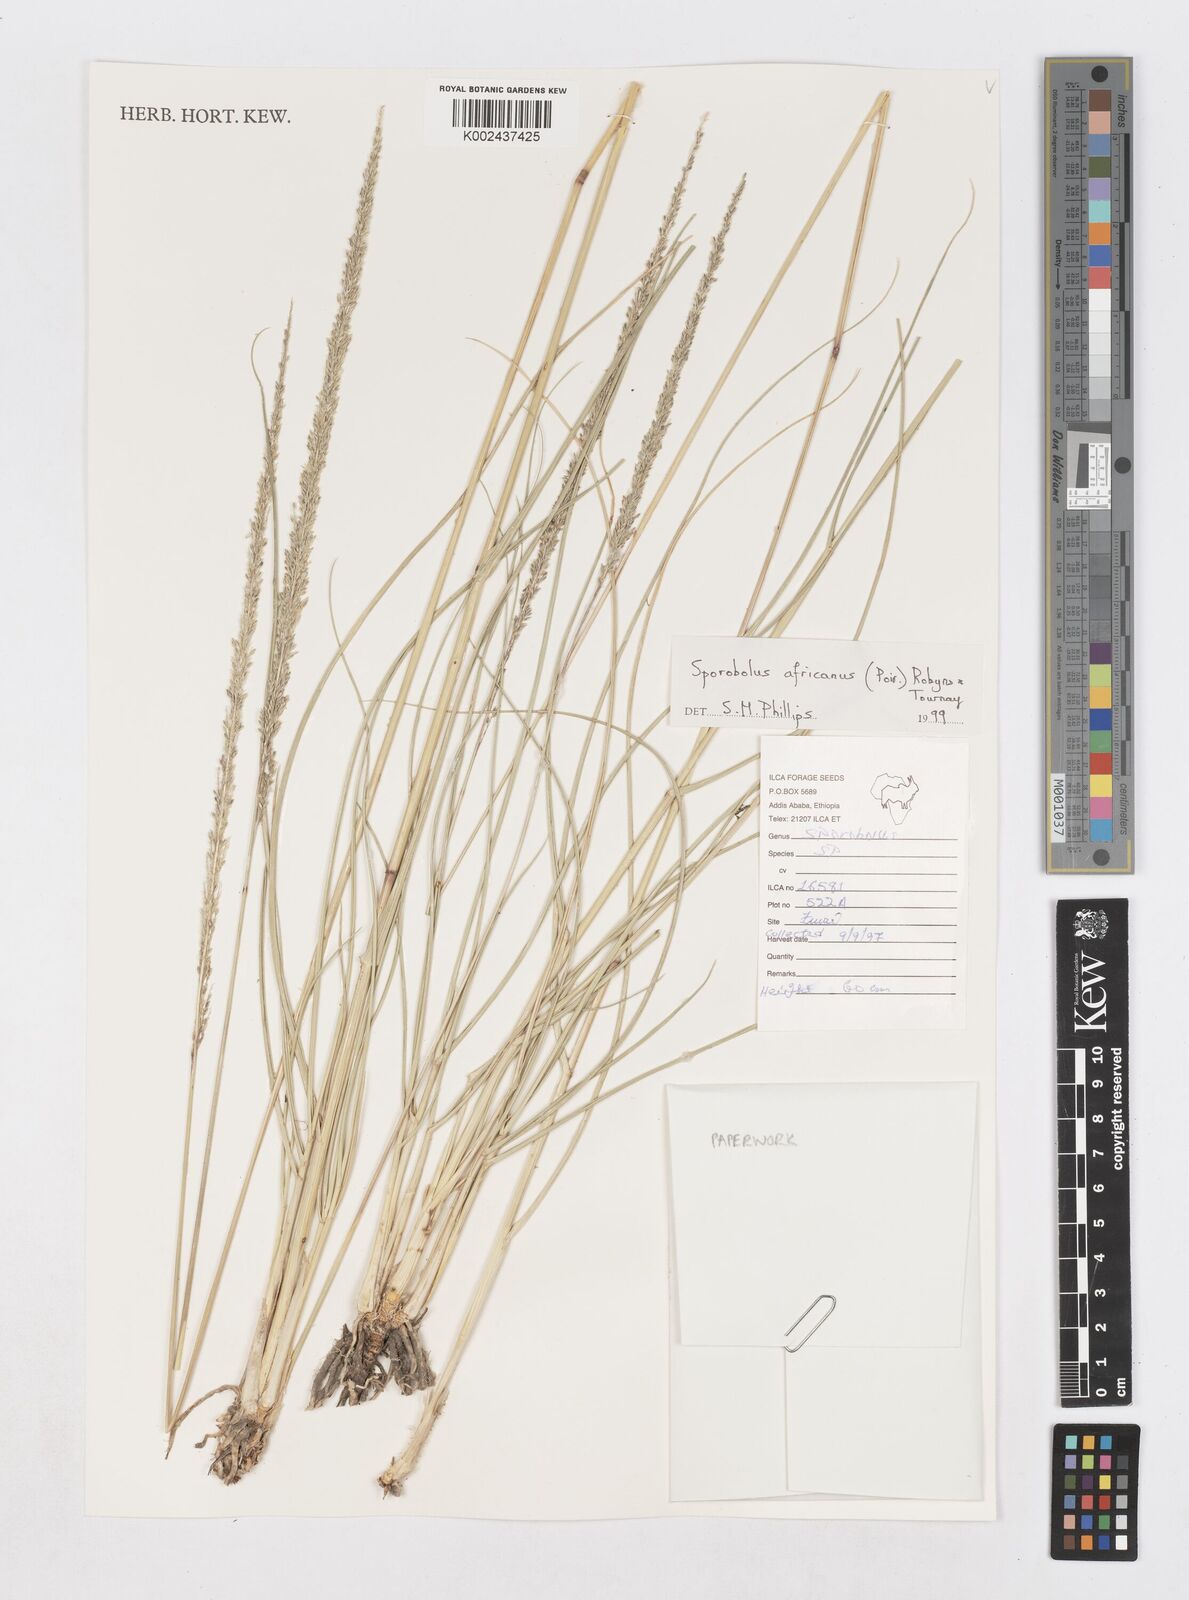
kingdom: Plantae
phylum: Tracheophyta
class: Liliopsida
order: Poales
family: Poaceae
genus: Sporobolus
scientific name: Sporobolus africanus
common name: African dropseed
